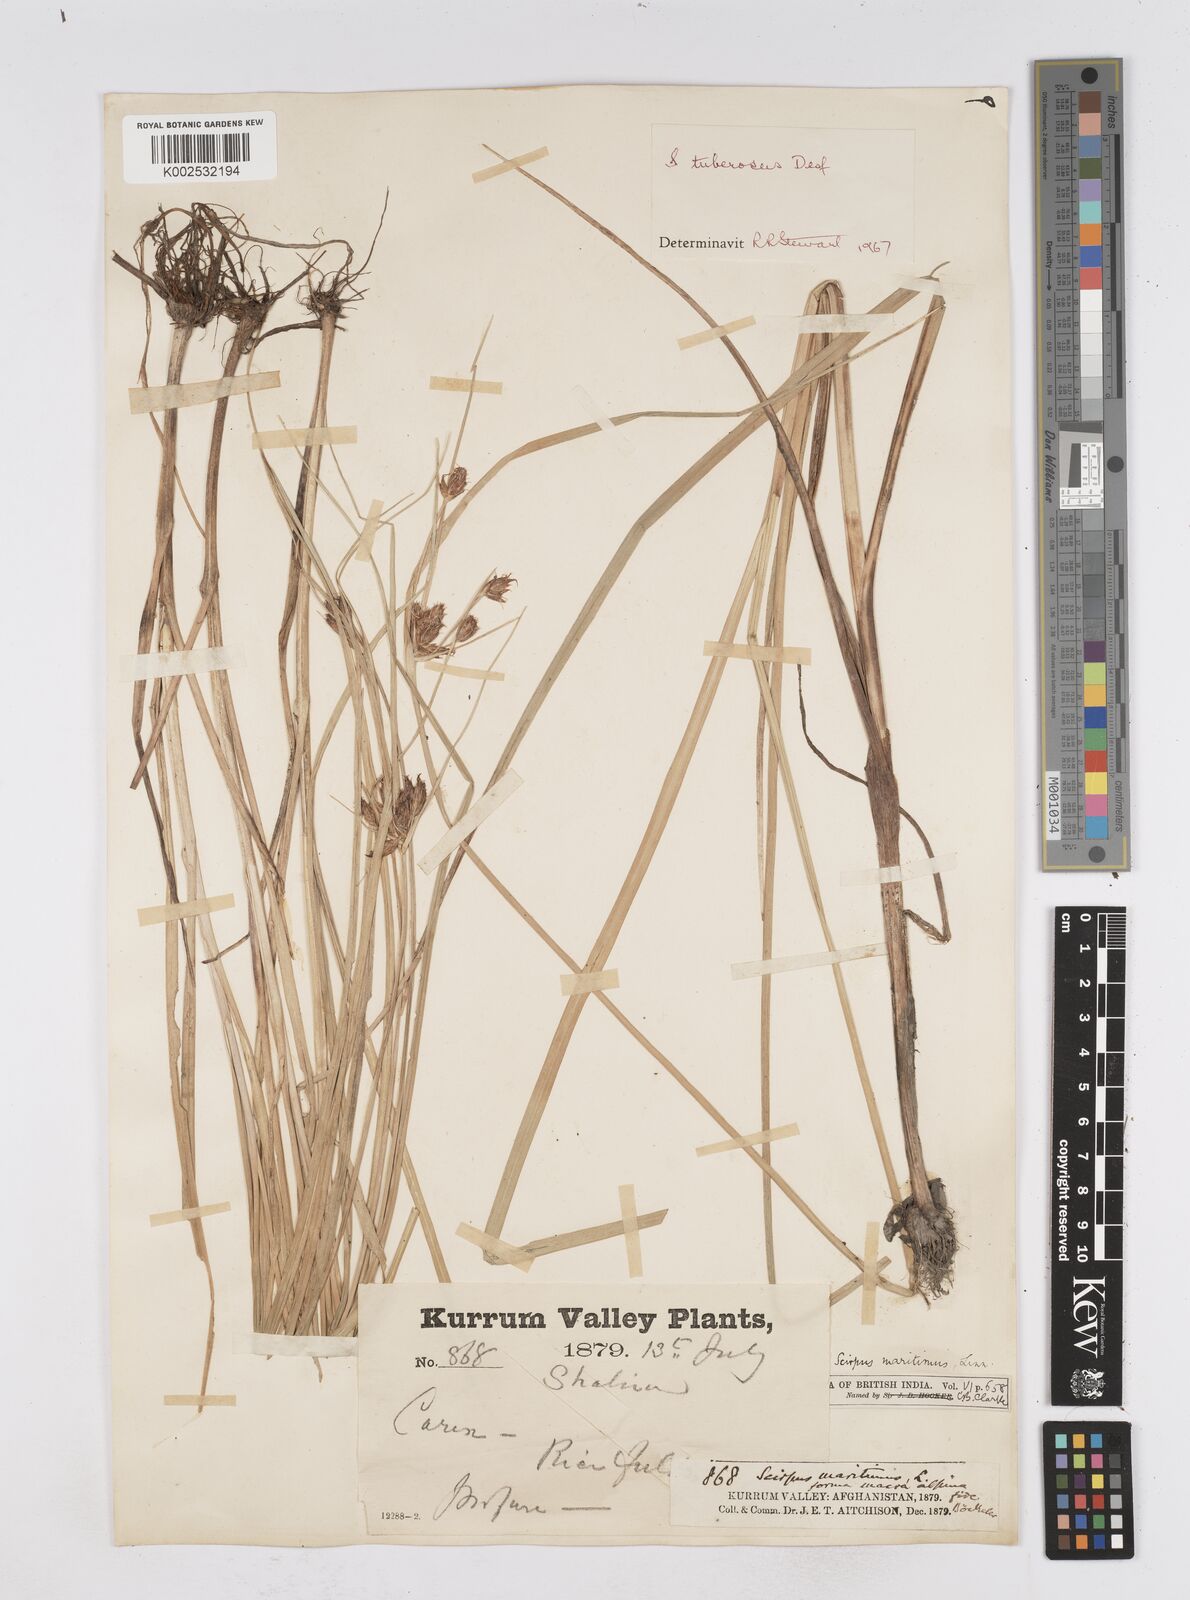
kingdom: Plantae
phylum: Tracheophyta
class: Liliopsida
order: Poales
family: Cyperaceae
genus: Bolboschoenus
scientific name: Bolboschoenus maritimus
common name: Sea club-rush
